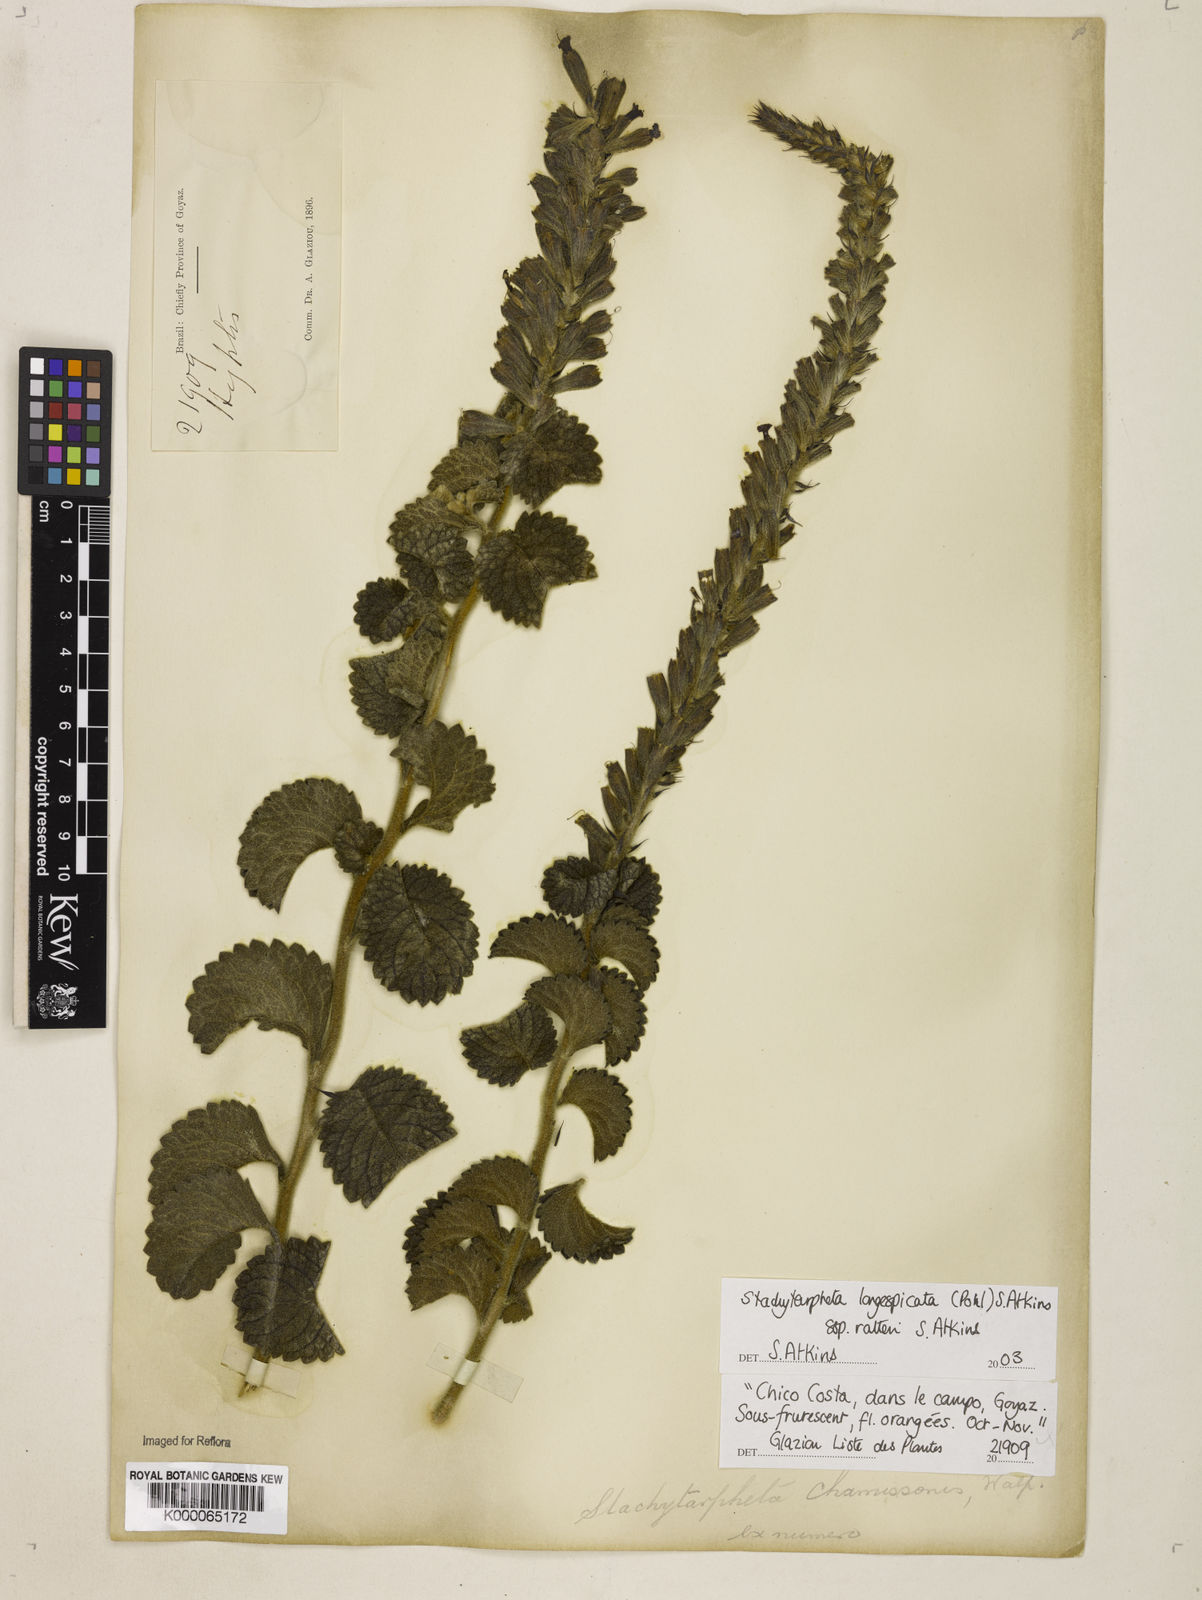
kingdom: Plantae
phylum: Tracheophyta
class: Magnoliopsida
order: Lamiales
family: Verbenaceae
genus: Stachytarpheta
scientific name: Stachytarpheta chapadensis
